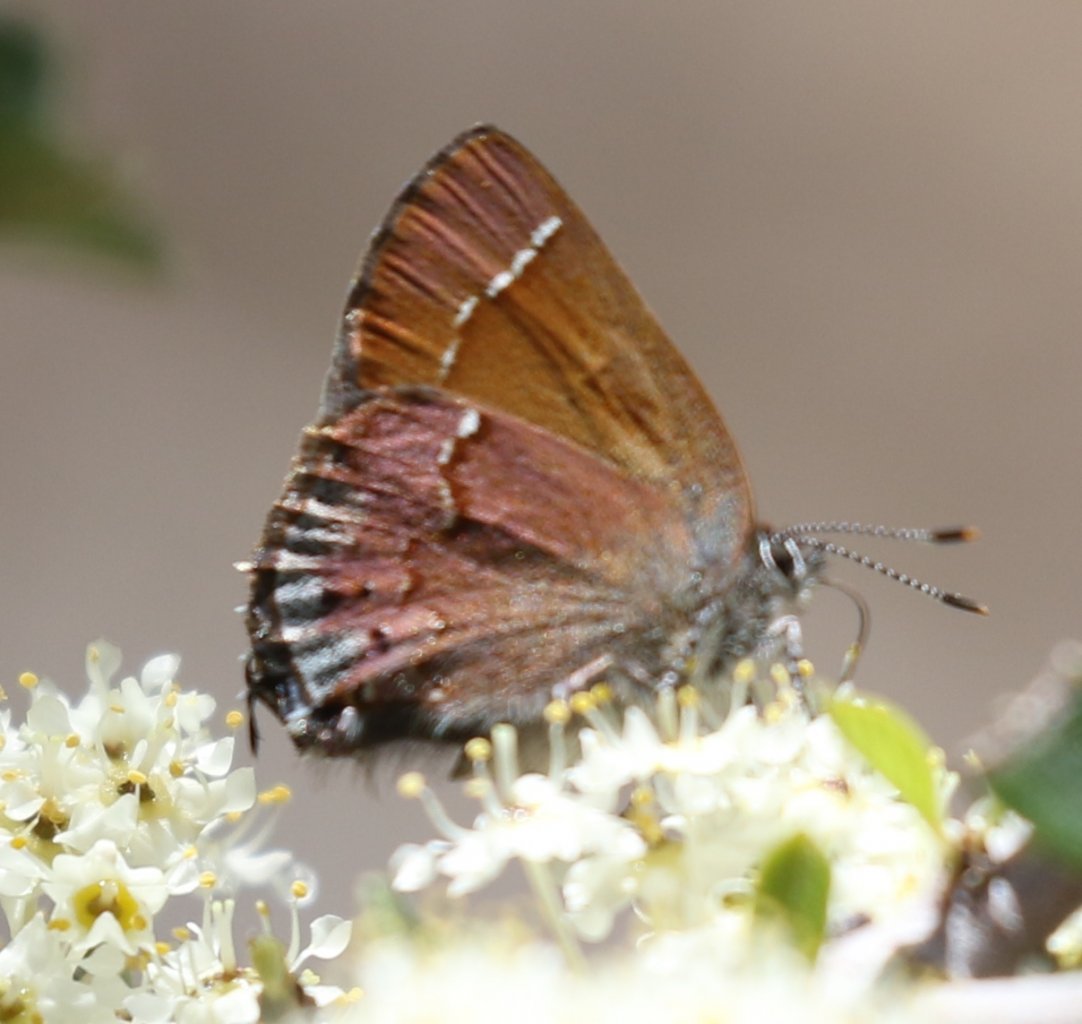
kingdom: Animalia
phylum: Arthropoda
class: Insecta
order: Lepidoptera
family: Lycaenidae
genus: Mitoura
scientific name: Mitoura gryneus
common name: Juniper Hairstreak
